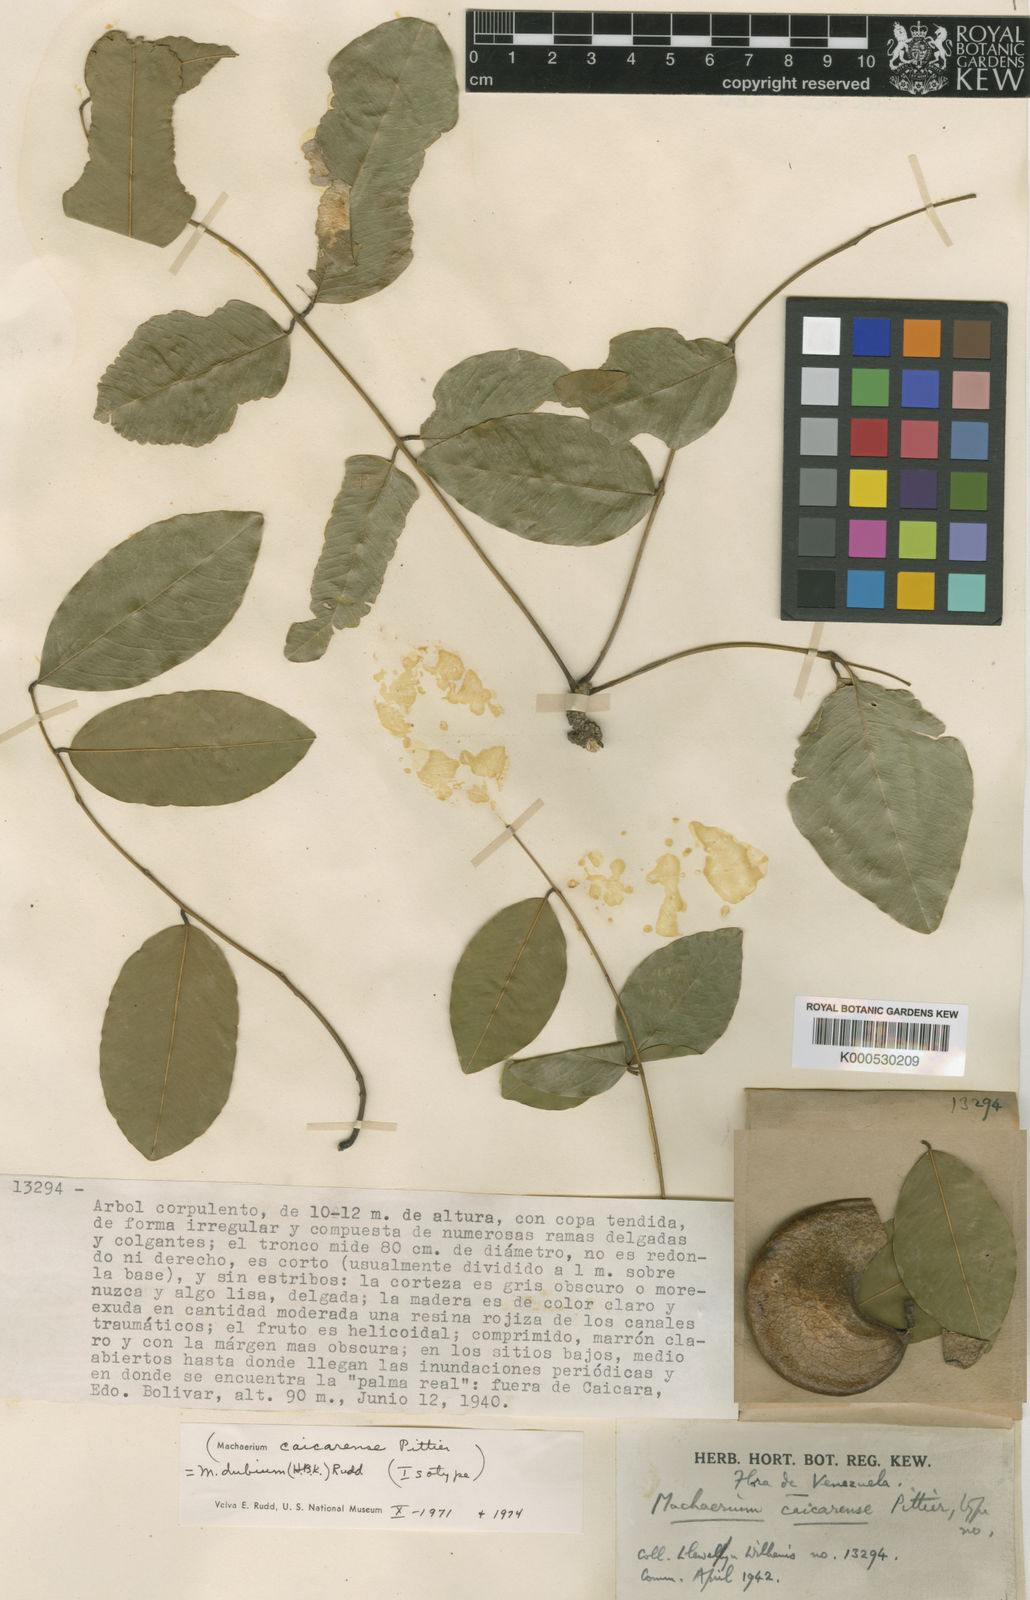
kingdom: Plantae
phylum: Tracheophyta
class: Magnoliopsida
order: Fabales
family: Fabaceae
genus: Machaerium
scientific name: Machaerium dubium
